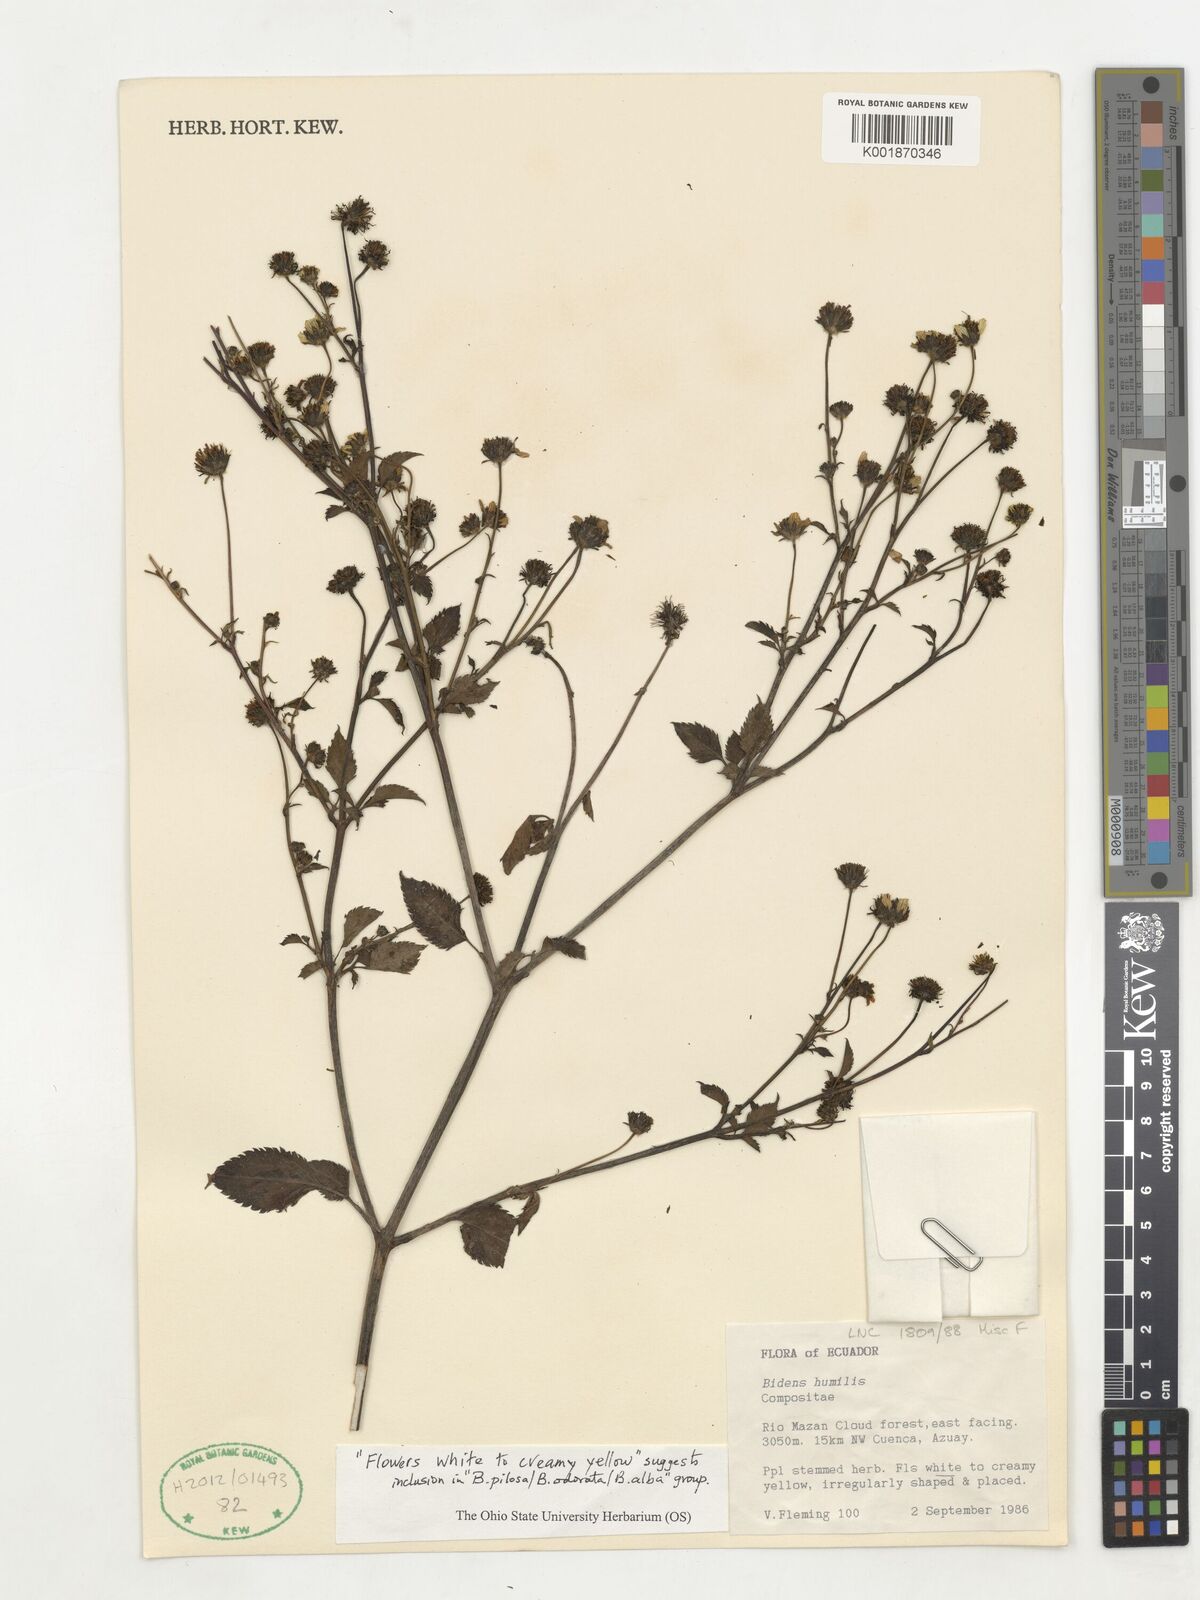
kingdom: Plantae
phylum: Tracheophyta
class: Magnoliopsida
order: Asterales
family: Asteraceae
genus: Bidens
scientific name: Bidens
